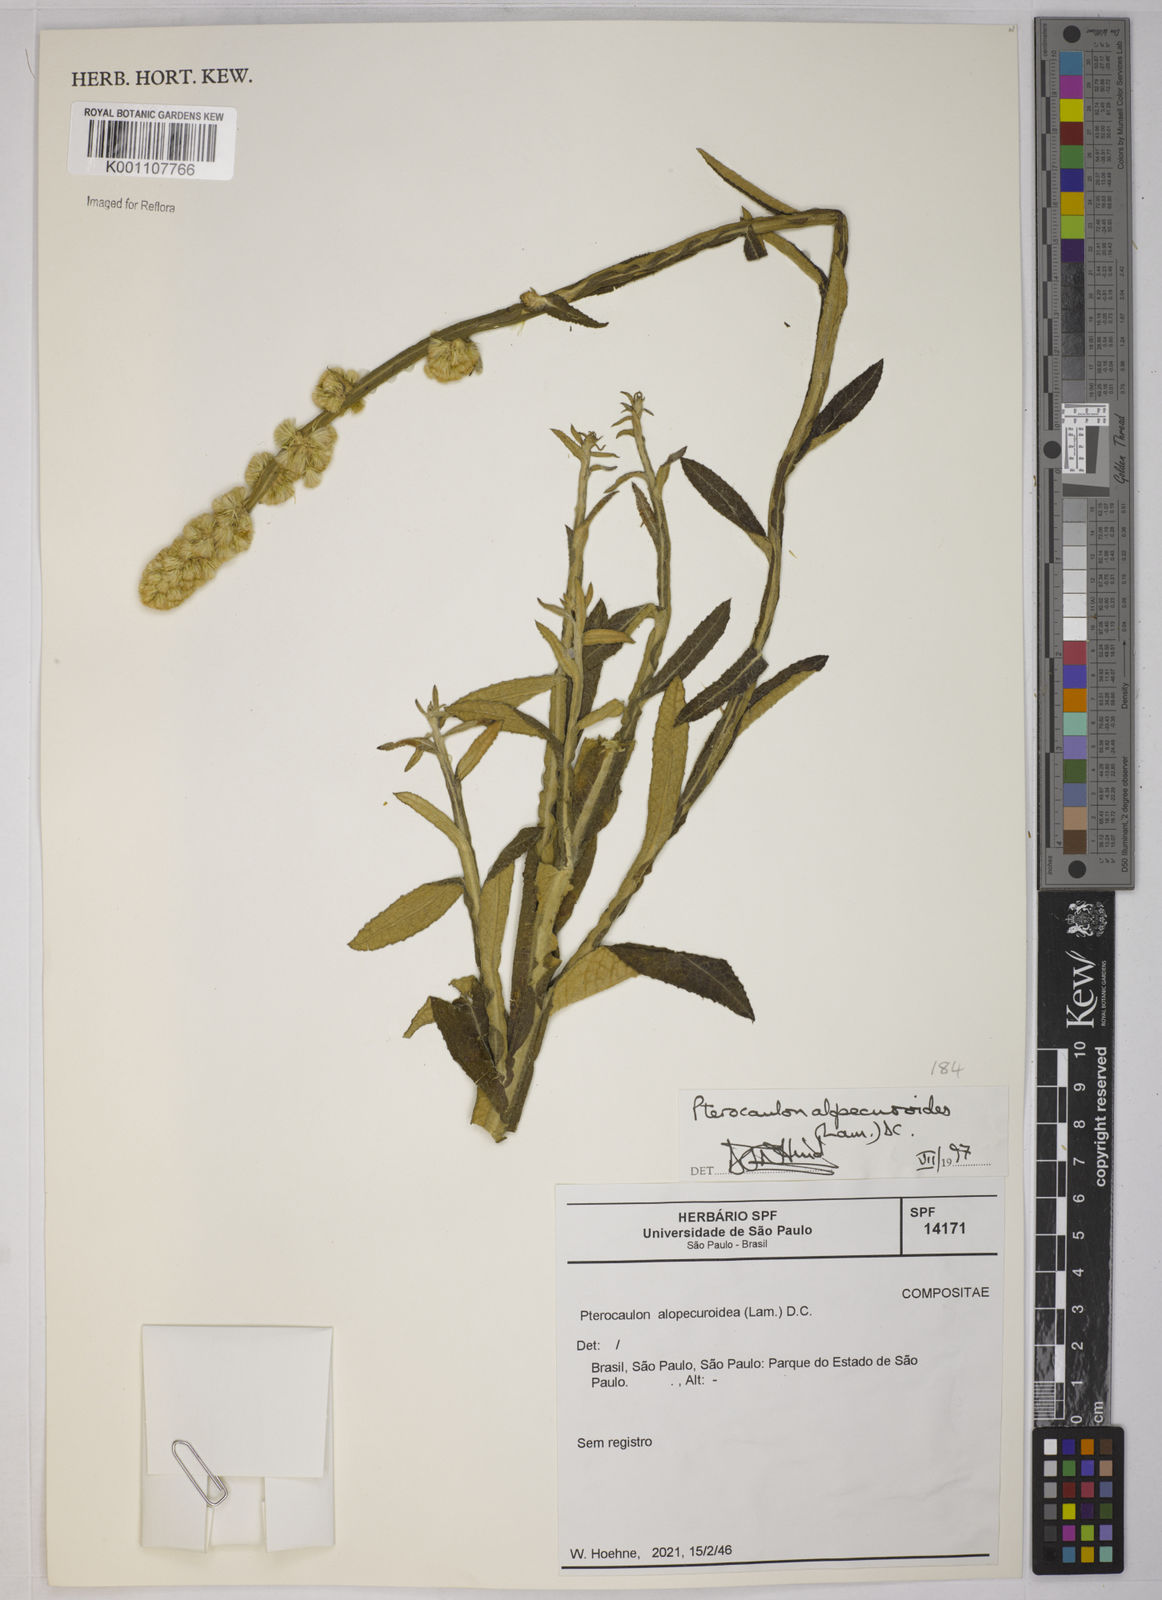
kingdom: Plantae
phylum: Tracheophyta
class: Magnoliopsida
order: Asterales
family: Asteraceae
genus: Pterocaulon
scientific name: Pterocaulon alopecuroides
